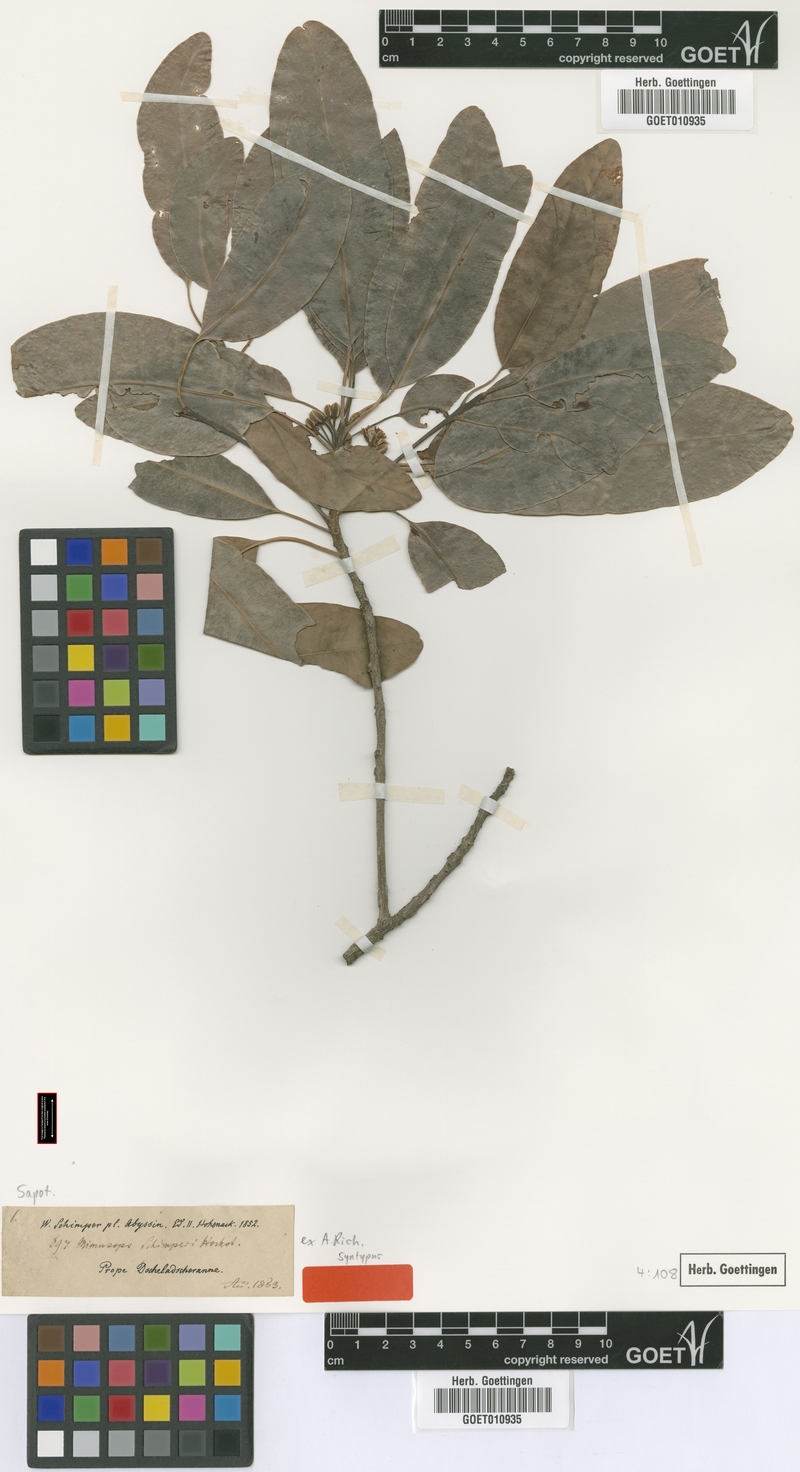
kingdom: Plantae
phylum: Tracheophyta
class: Magnoliopsida
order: Ericales
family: Sapotaceae
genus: Mimusops
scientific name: Mimusops laurifolia
